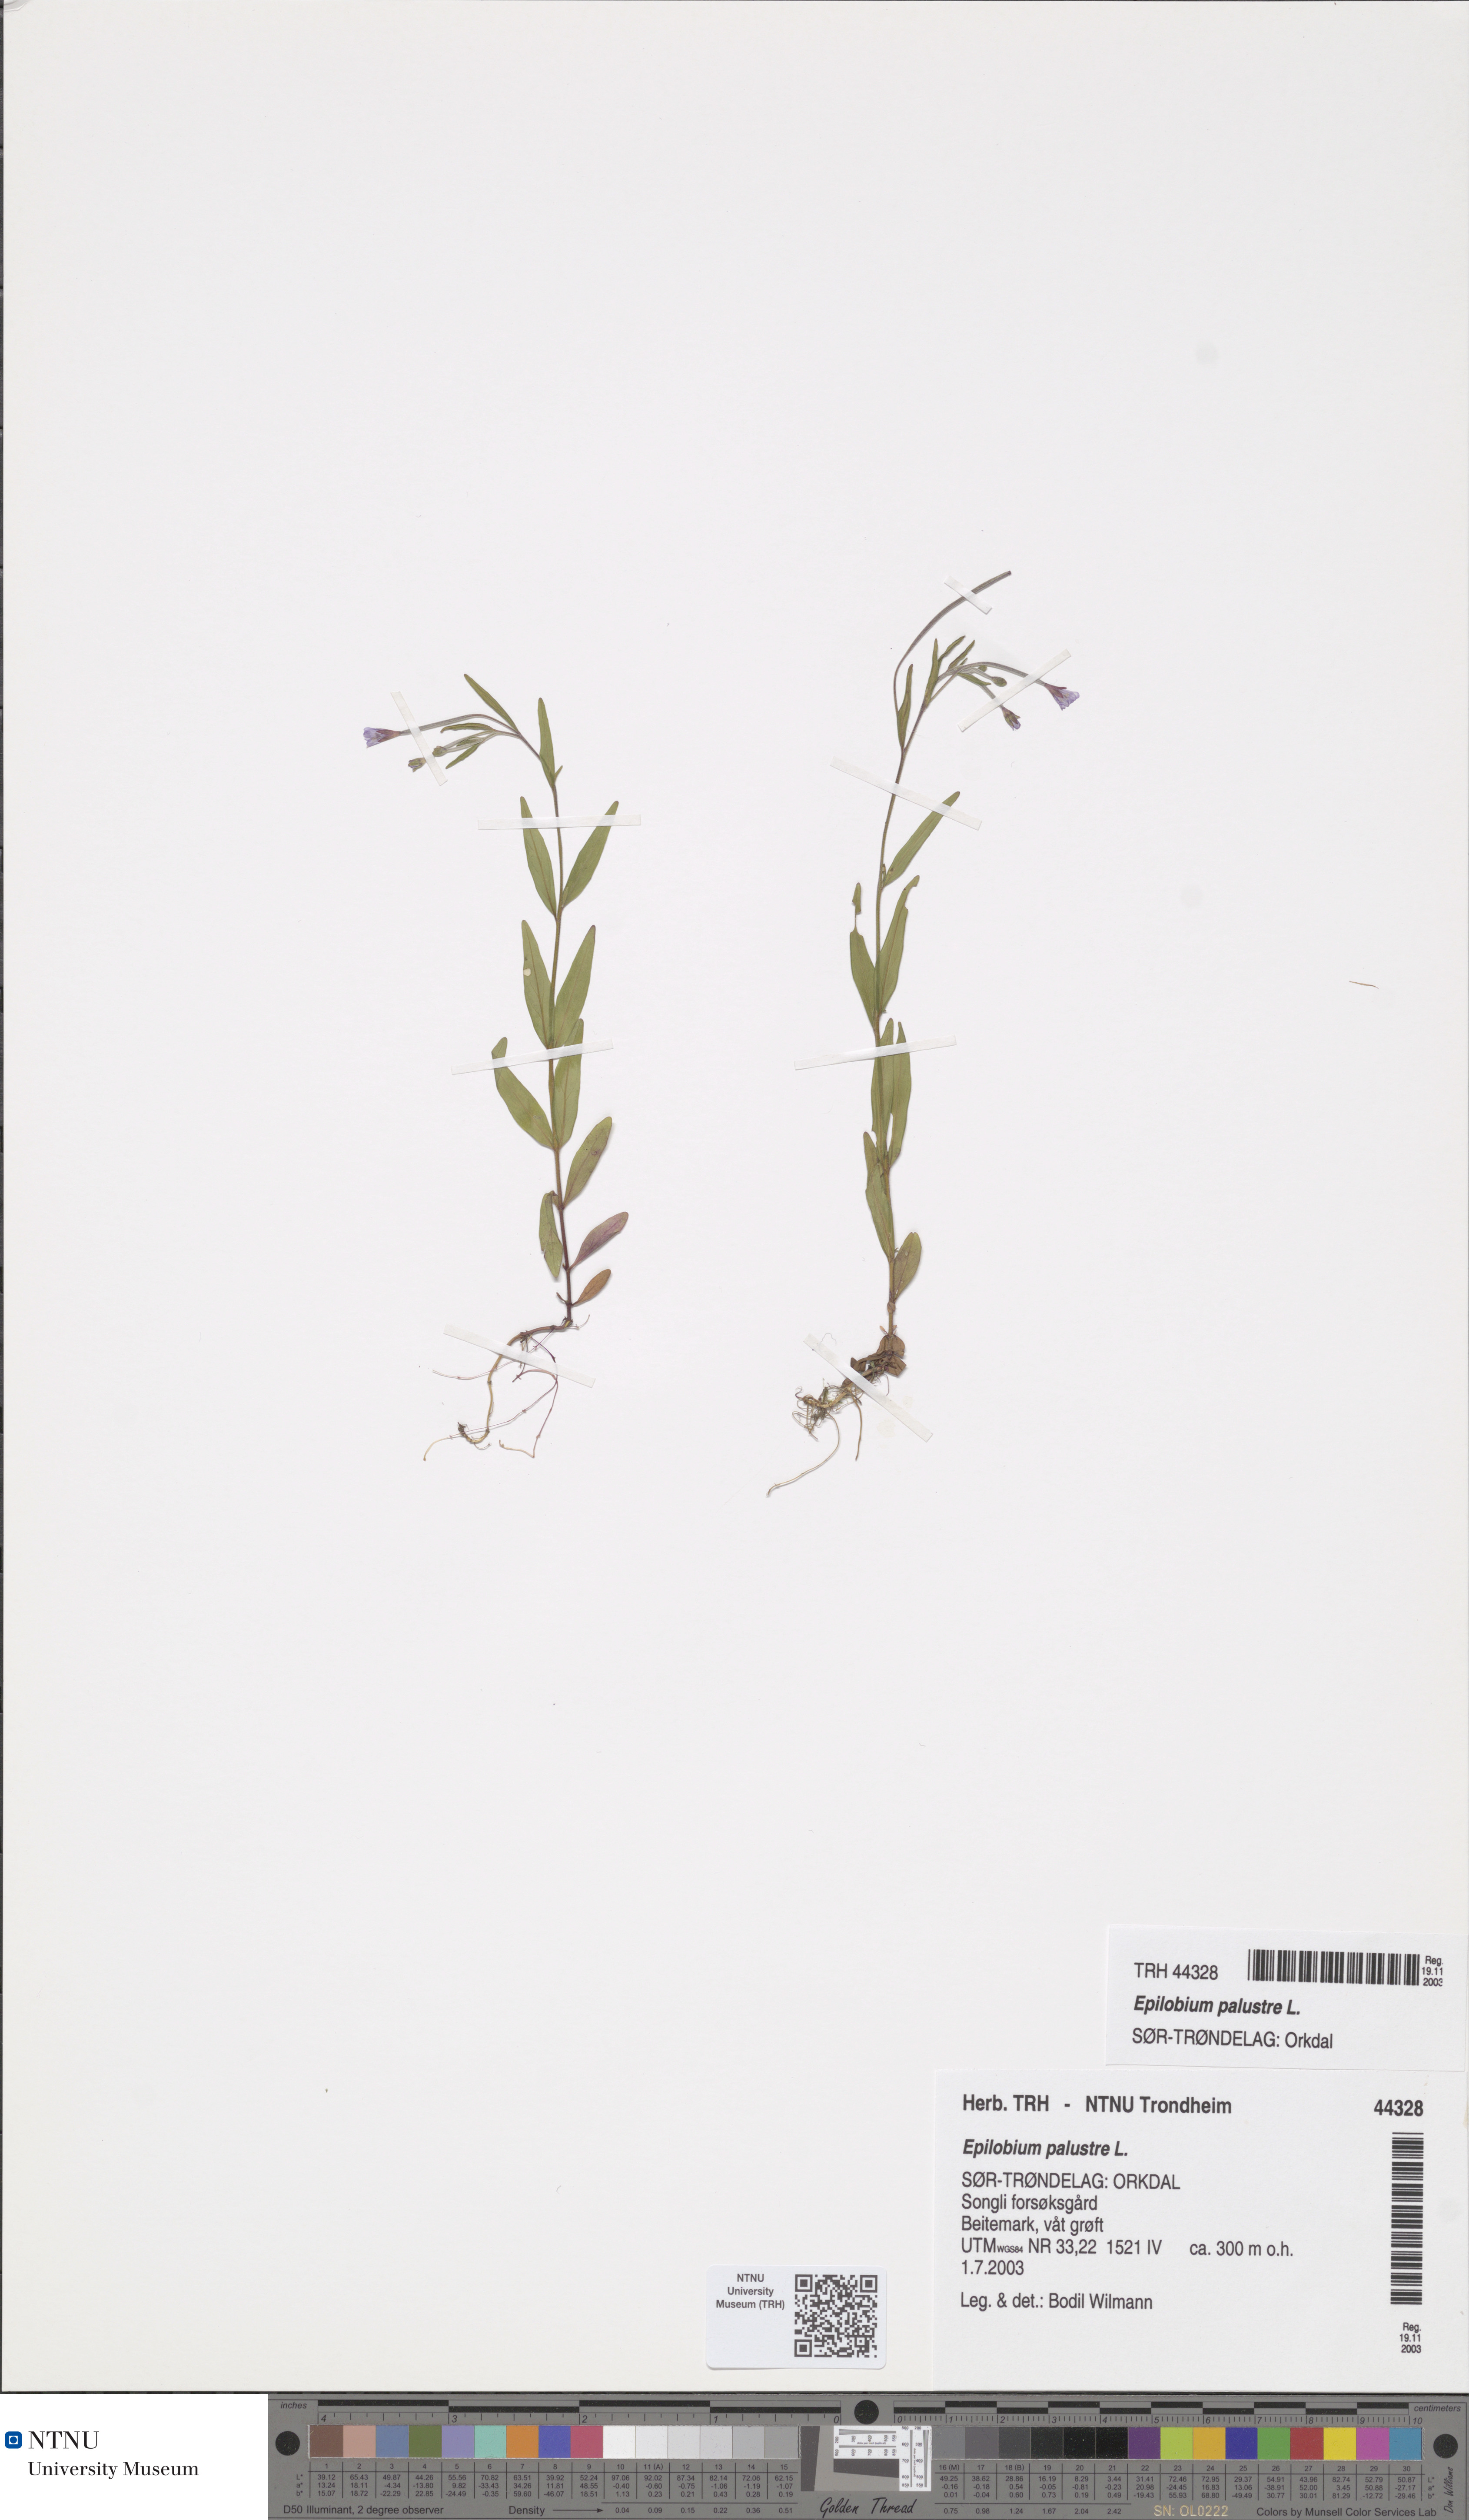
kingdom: Plantae
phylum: Tracheophyta
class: Magnoliopsida
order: Myrtales
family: Onagraceae
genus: Epilobium
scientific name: Epilobium palustre
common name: Marsh willowherb
